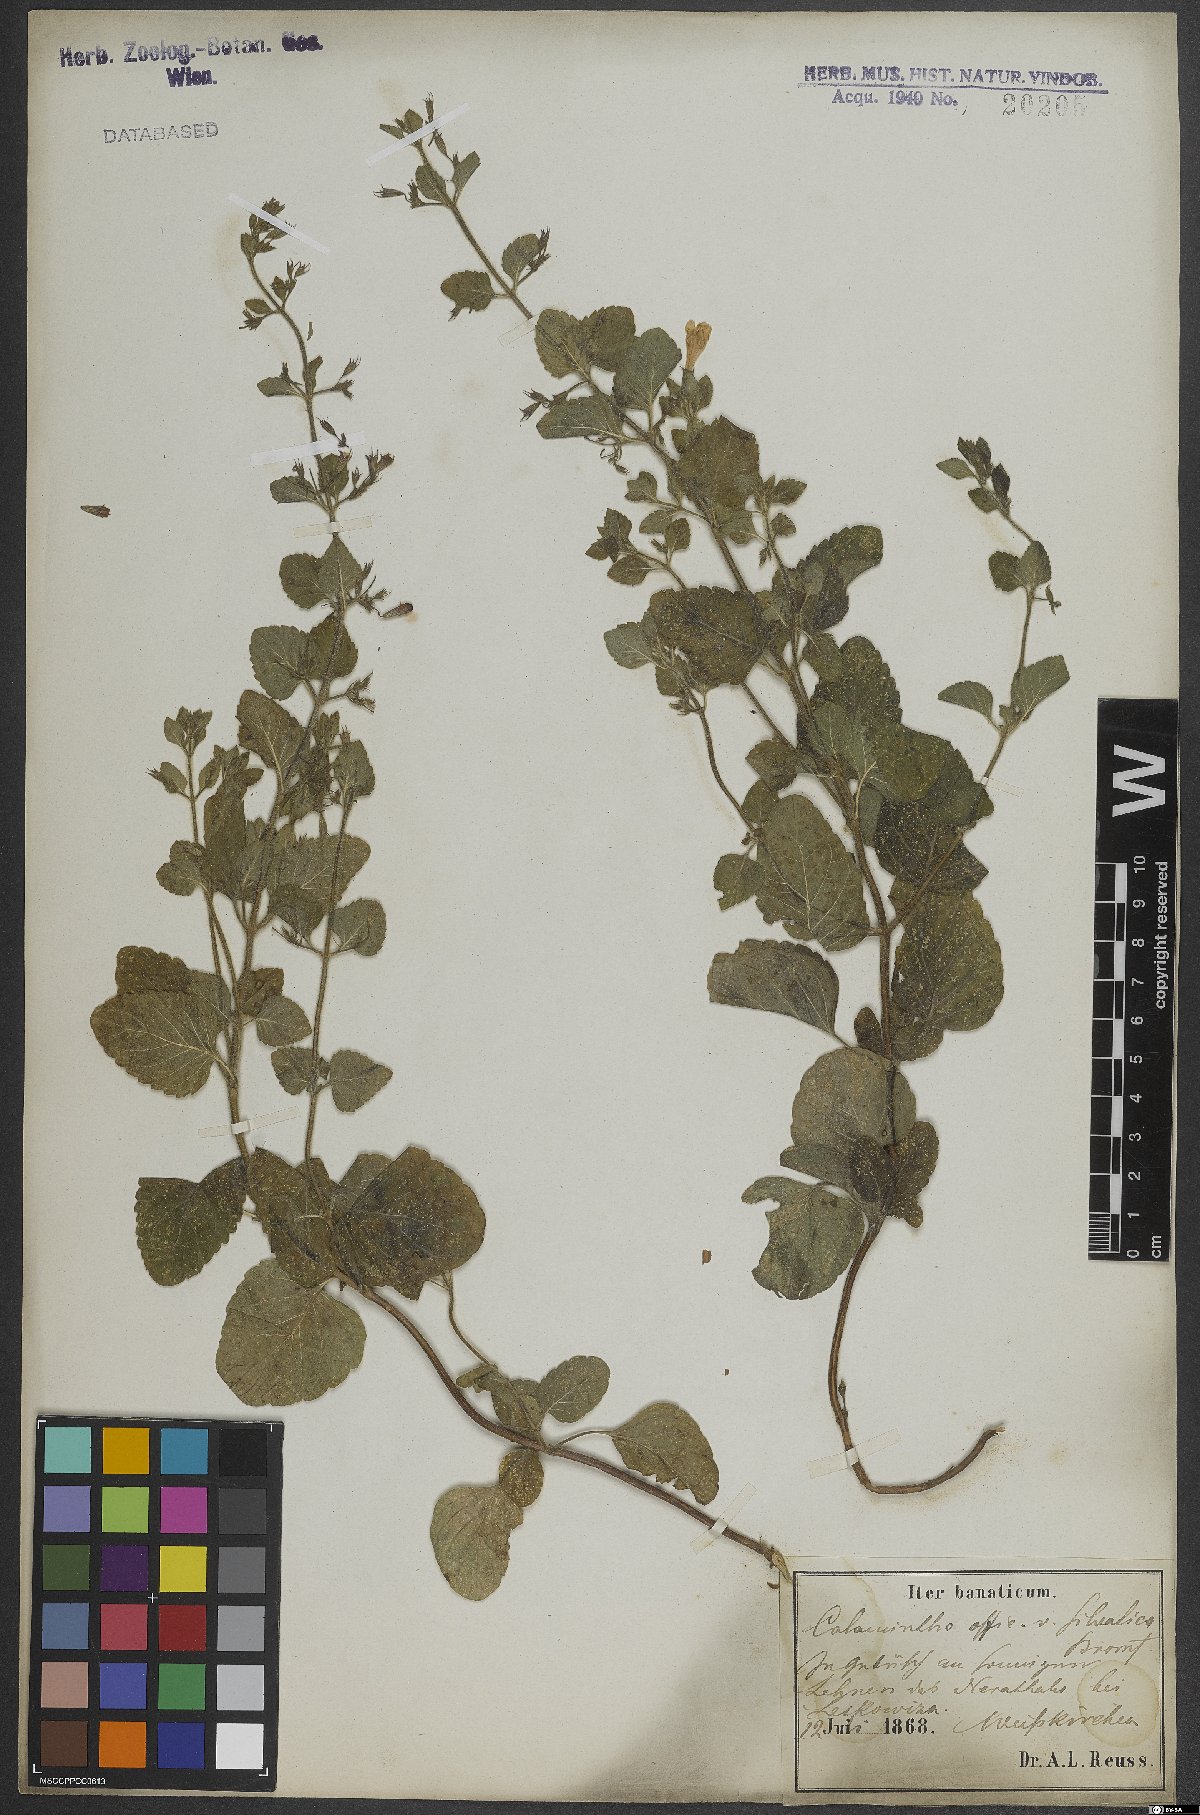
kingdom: Plantae
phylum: Tracheophyta
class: Magnoliopsida
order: Lamiales
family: Lamiaceae
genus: Clinopodium
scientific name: Clinopodium nepeta
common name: Lesser calamint
